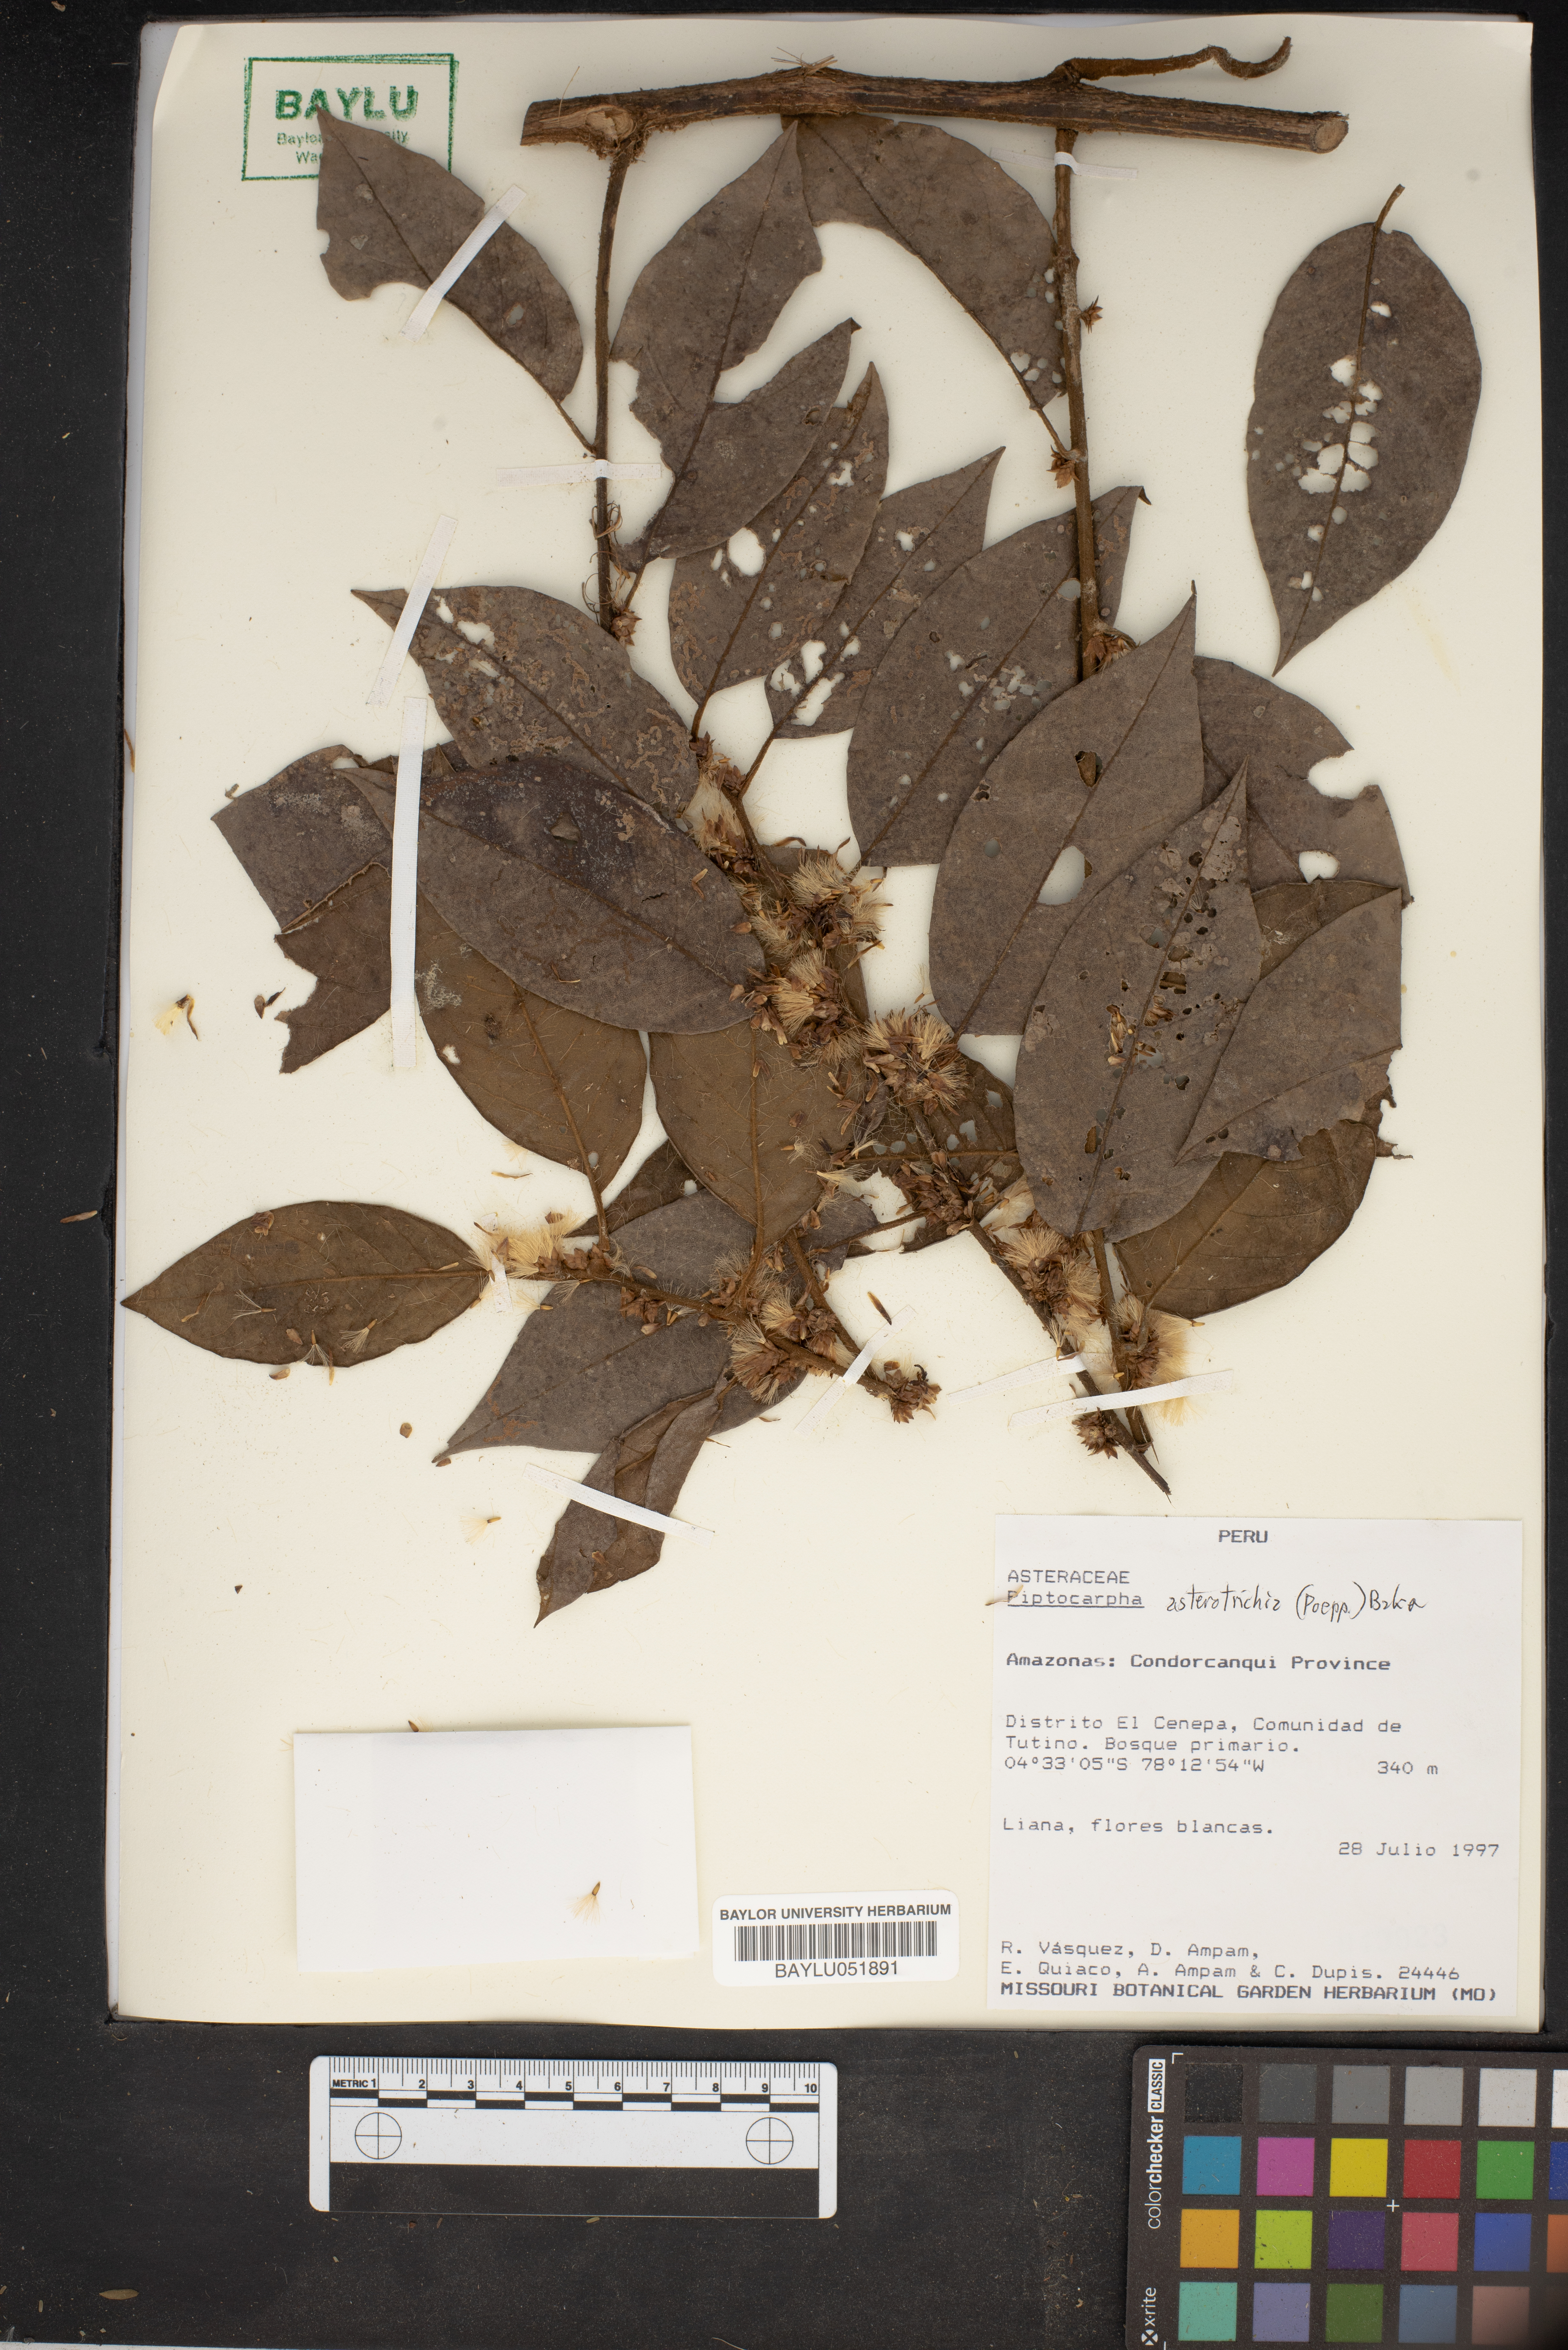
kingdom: Plantae
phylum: Tracheophyta
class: Magnoliopsida
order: Asterales
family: Asteraceae
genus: Piptocarpha
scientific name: Piptocarpha asterotrichia
